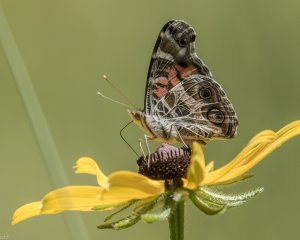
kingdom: Animalia
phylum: Arthropoda
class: Insecta
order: Lepidoptera
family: Nymphalidae
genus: Vanessa
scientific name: Vanessa virginiensis
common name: American Lady
